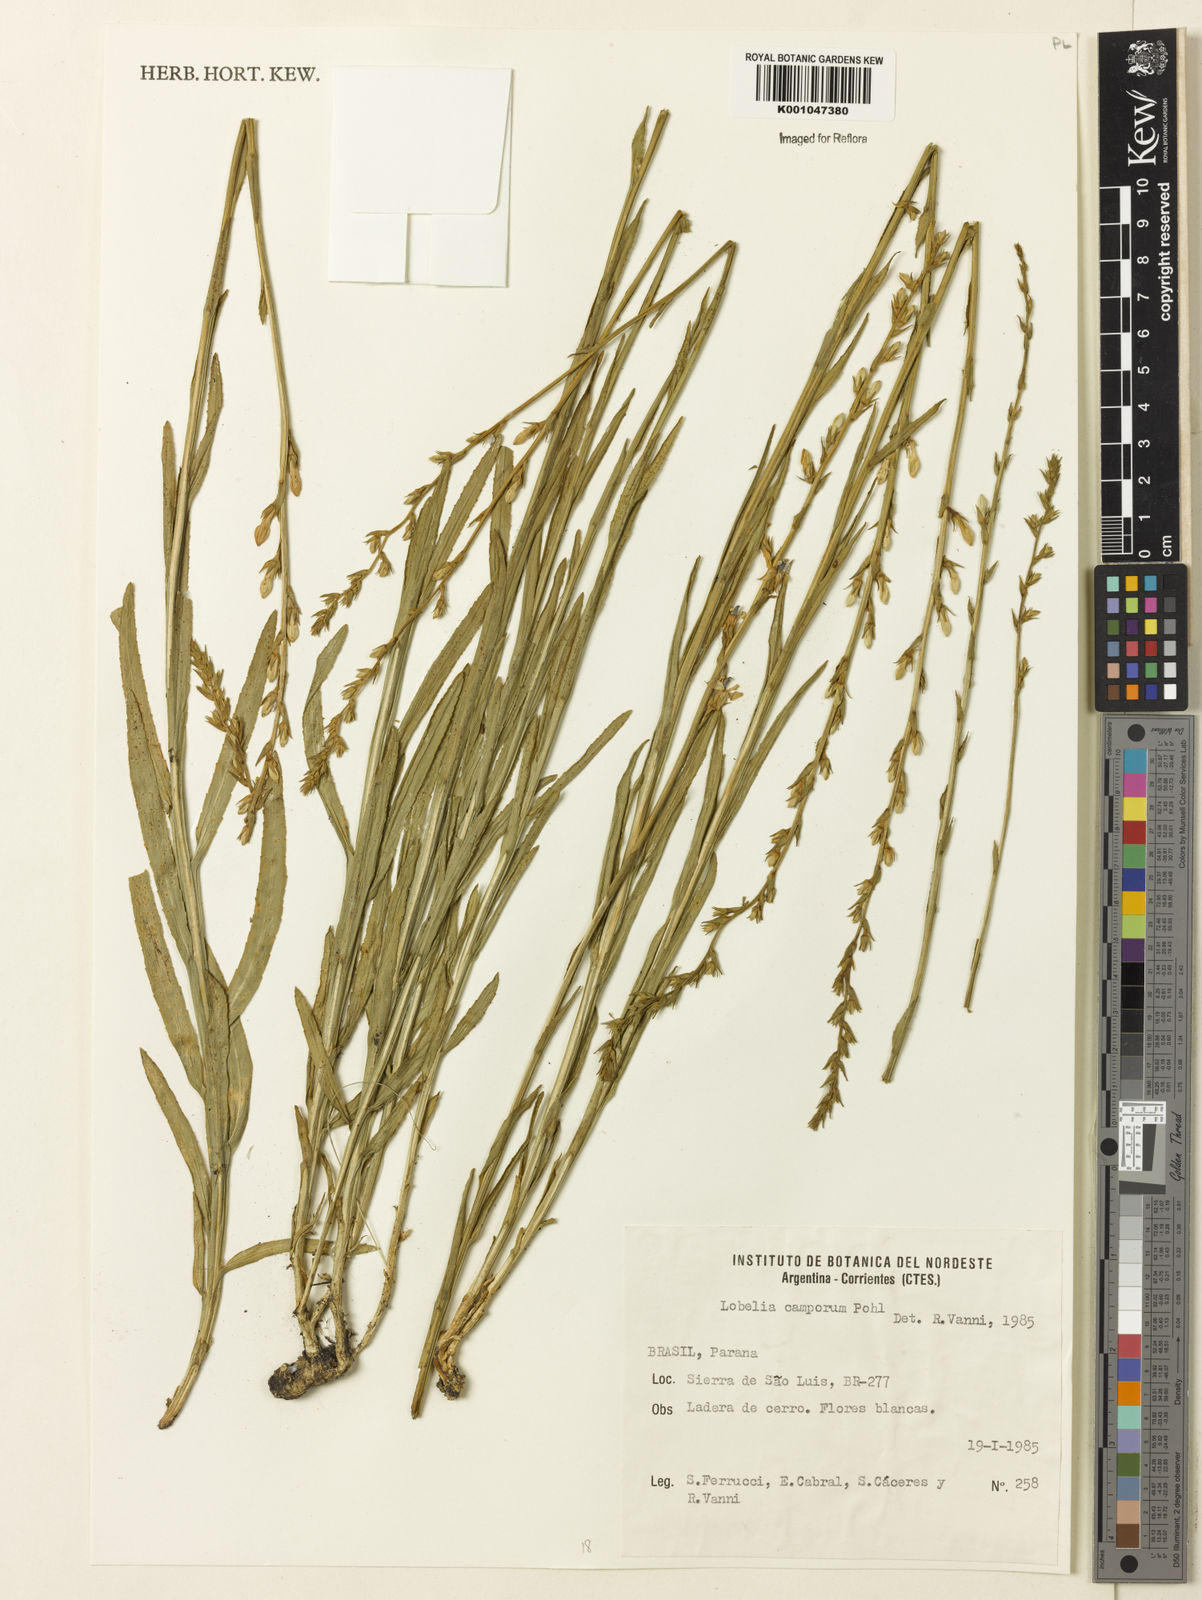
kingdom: Plantae
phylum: Tracheophyta
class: Magnoliopsida
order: Asterales
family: Campanulaceae
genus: Lobelia
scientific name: Lobelia camporum
